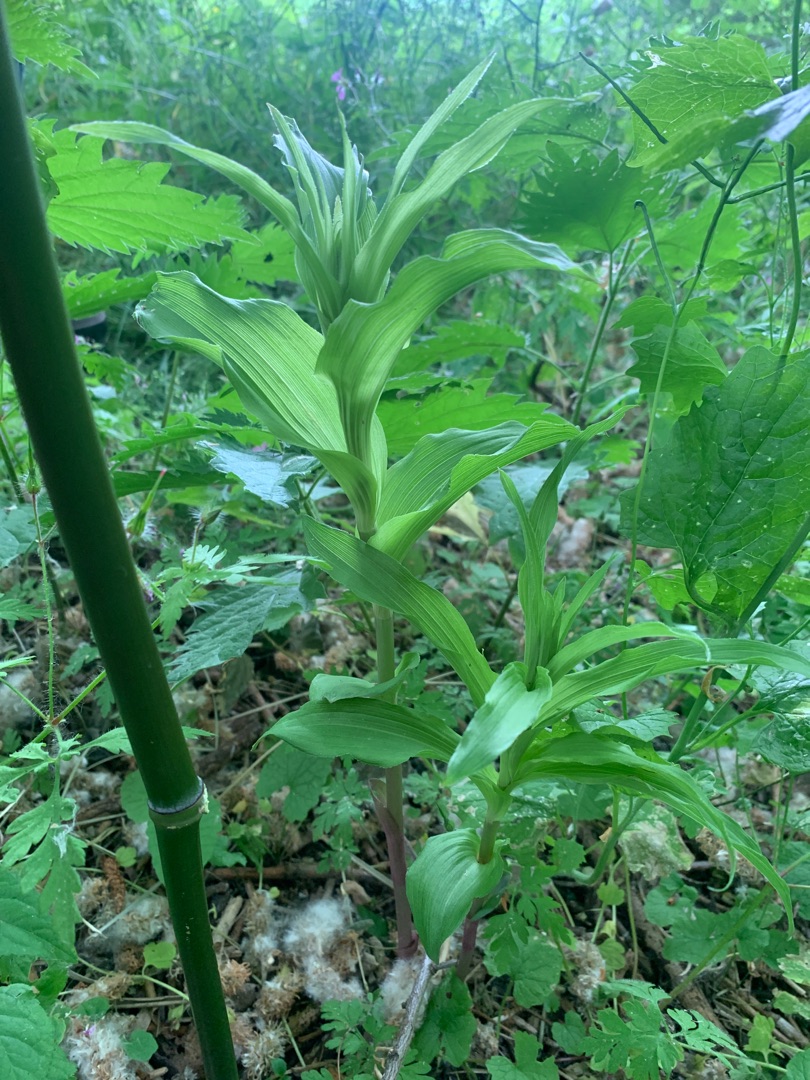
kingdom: Plantae
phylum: Tracheophyta
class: Liliopsida
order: Asparagales
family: Orchidaceae
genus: Epipactis
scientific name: Epipactis helleborine
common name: Skov-hullæbe
